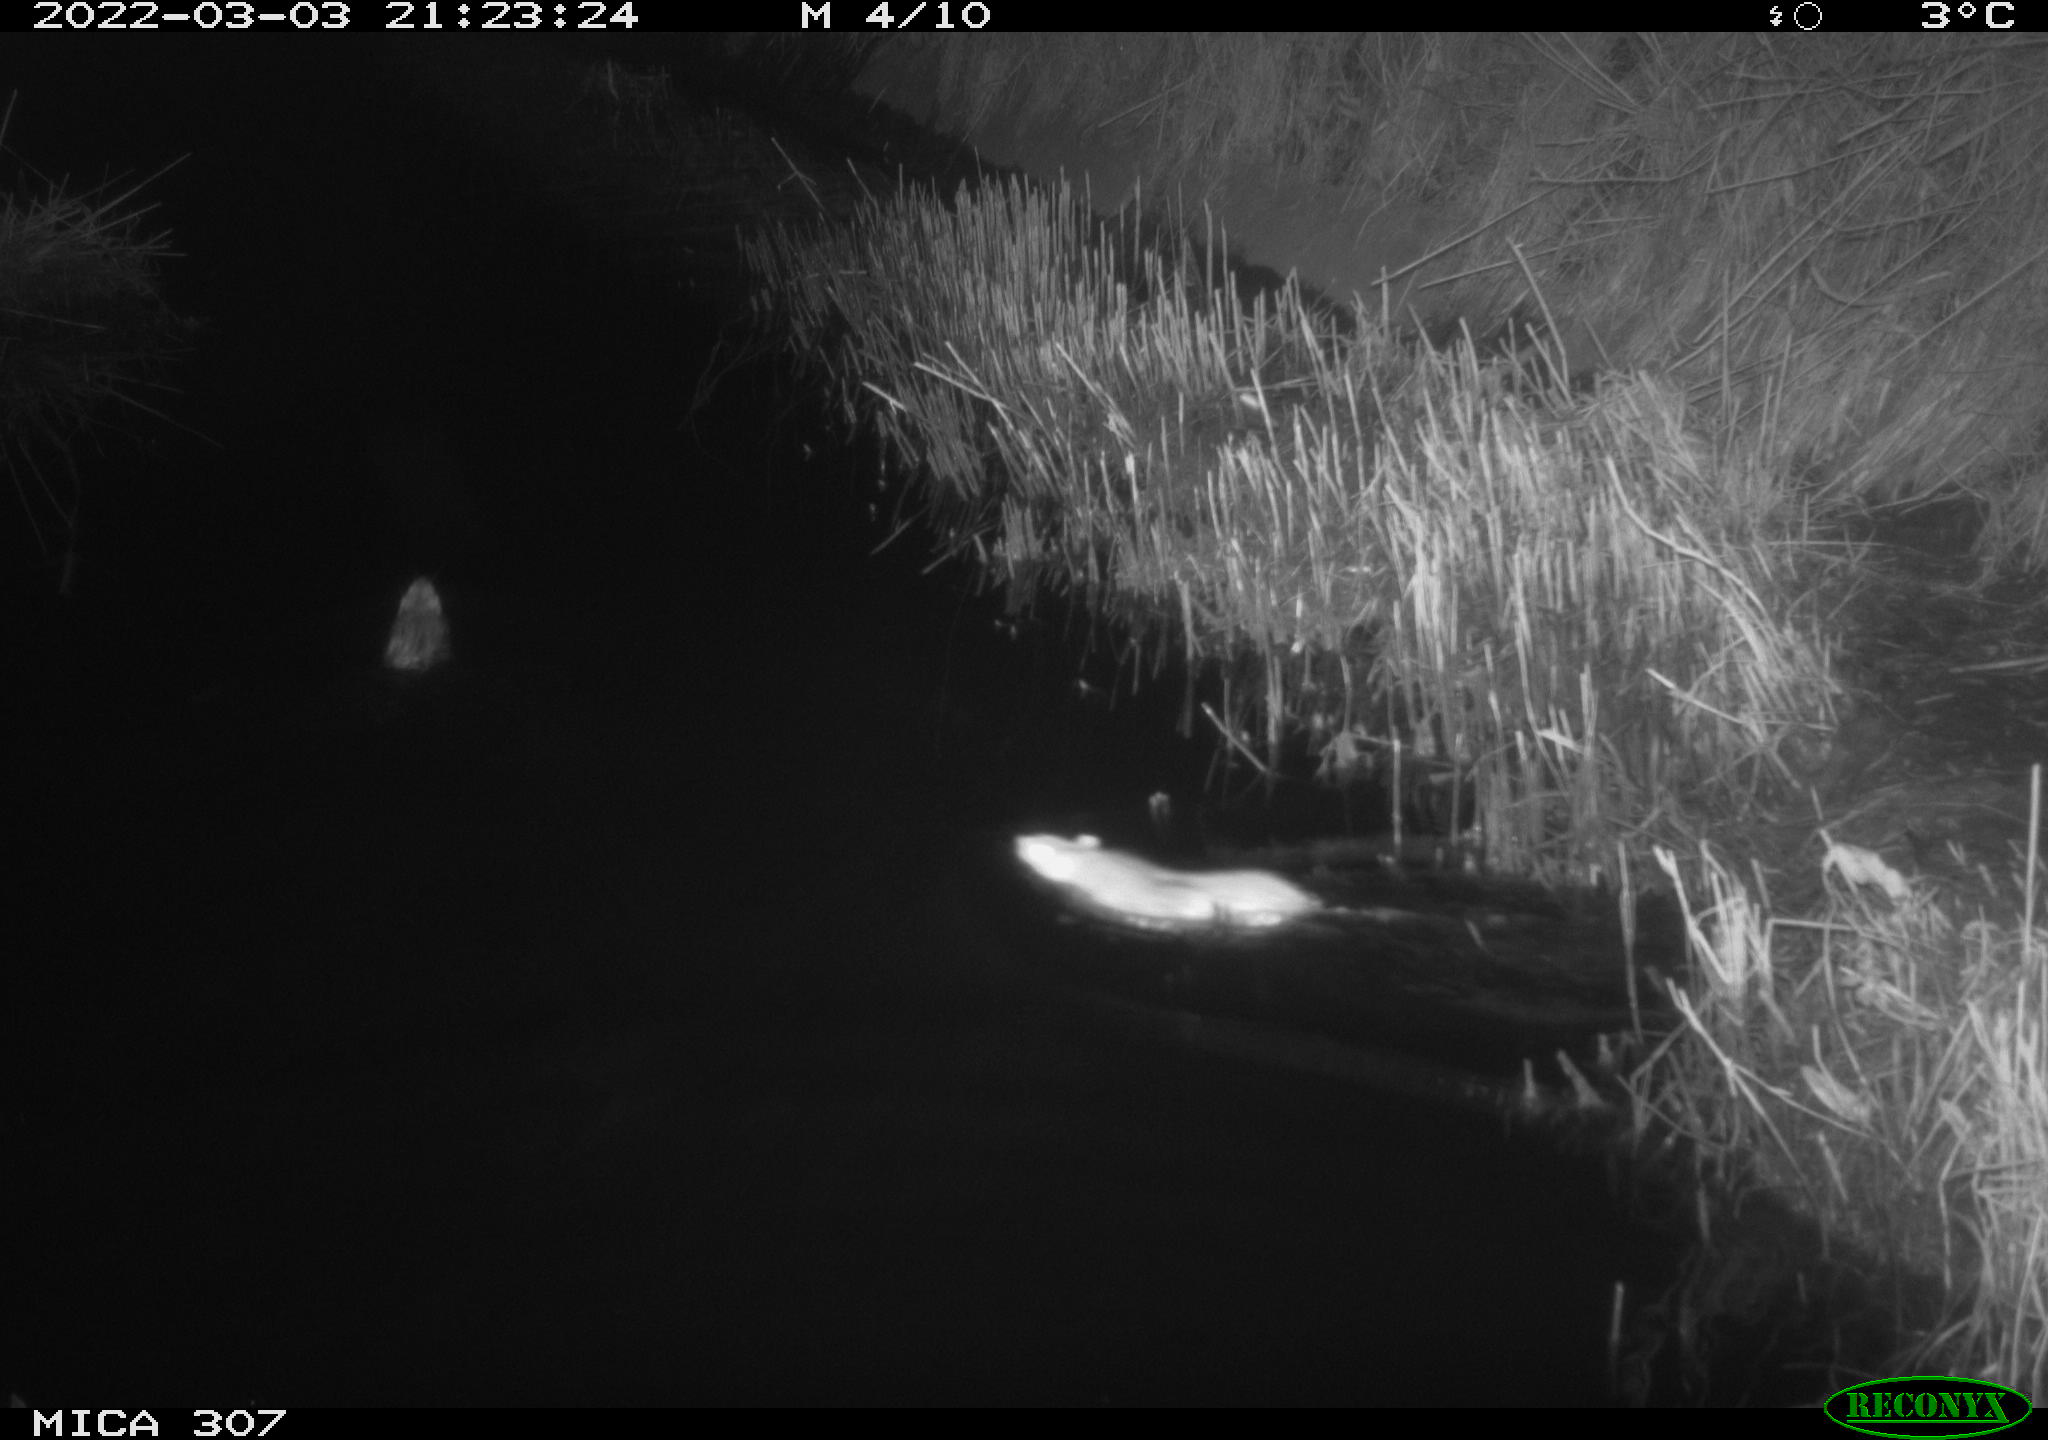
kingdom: Animalia
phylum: Chordata
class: Mammalia
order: Rodentia
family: Muridae
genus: Rattus
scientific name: Rattus norvegicus
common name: Brown rat
